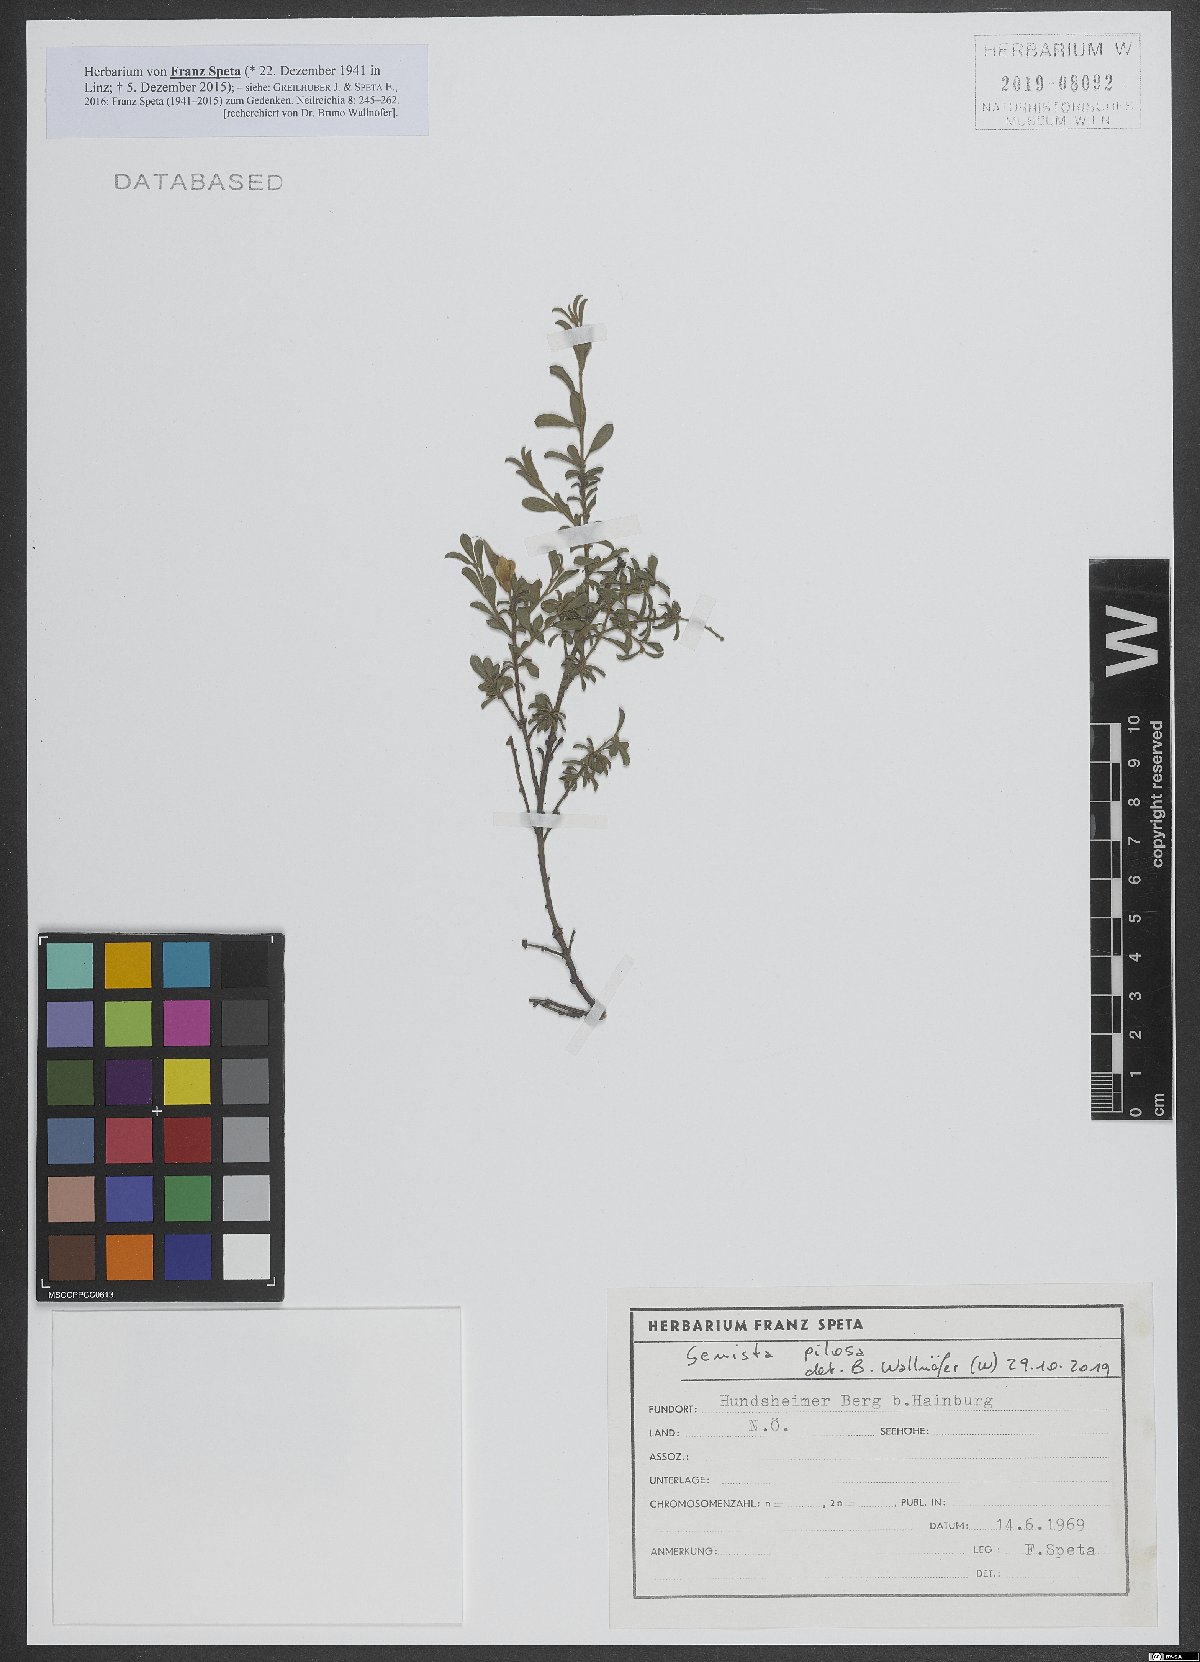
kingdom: Plantae
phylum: Tracheophyta
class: Magnoliopsida
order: Fabales
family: Fabaceae
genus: Genista
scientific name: Genista pilosa
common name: Hairy greenweed
